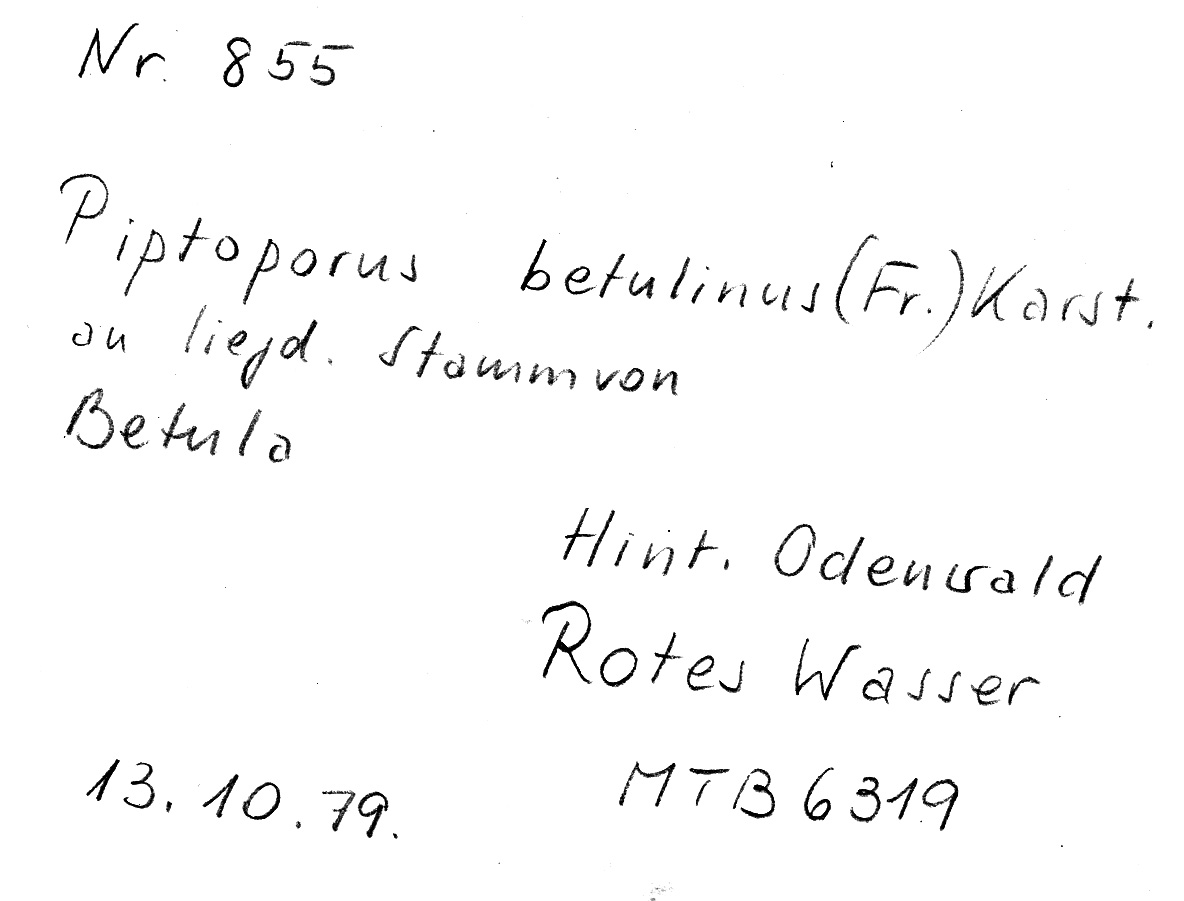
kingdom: Plantae
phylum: Tracheophyta
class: Magnoliopsida
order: Fagales
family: Betulaceae
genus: Betula
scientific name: Betula
